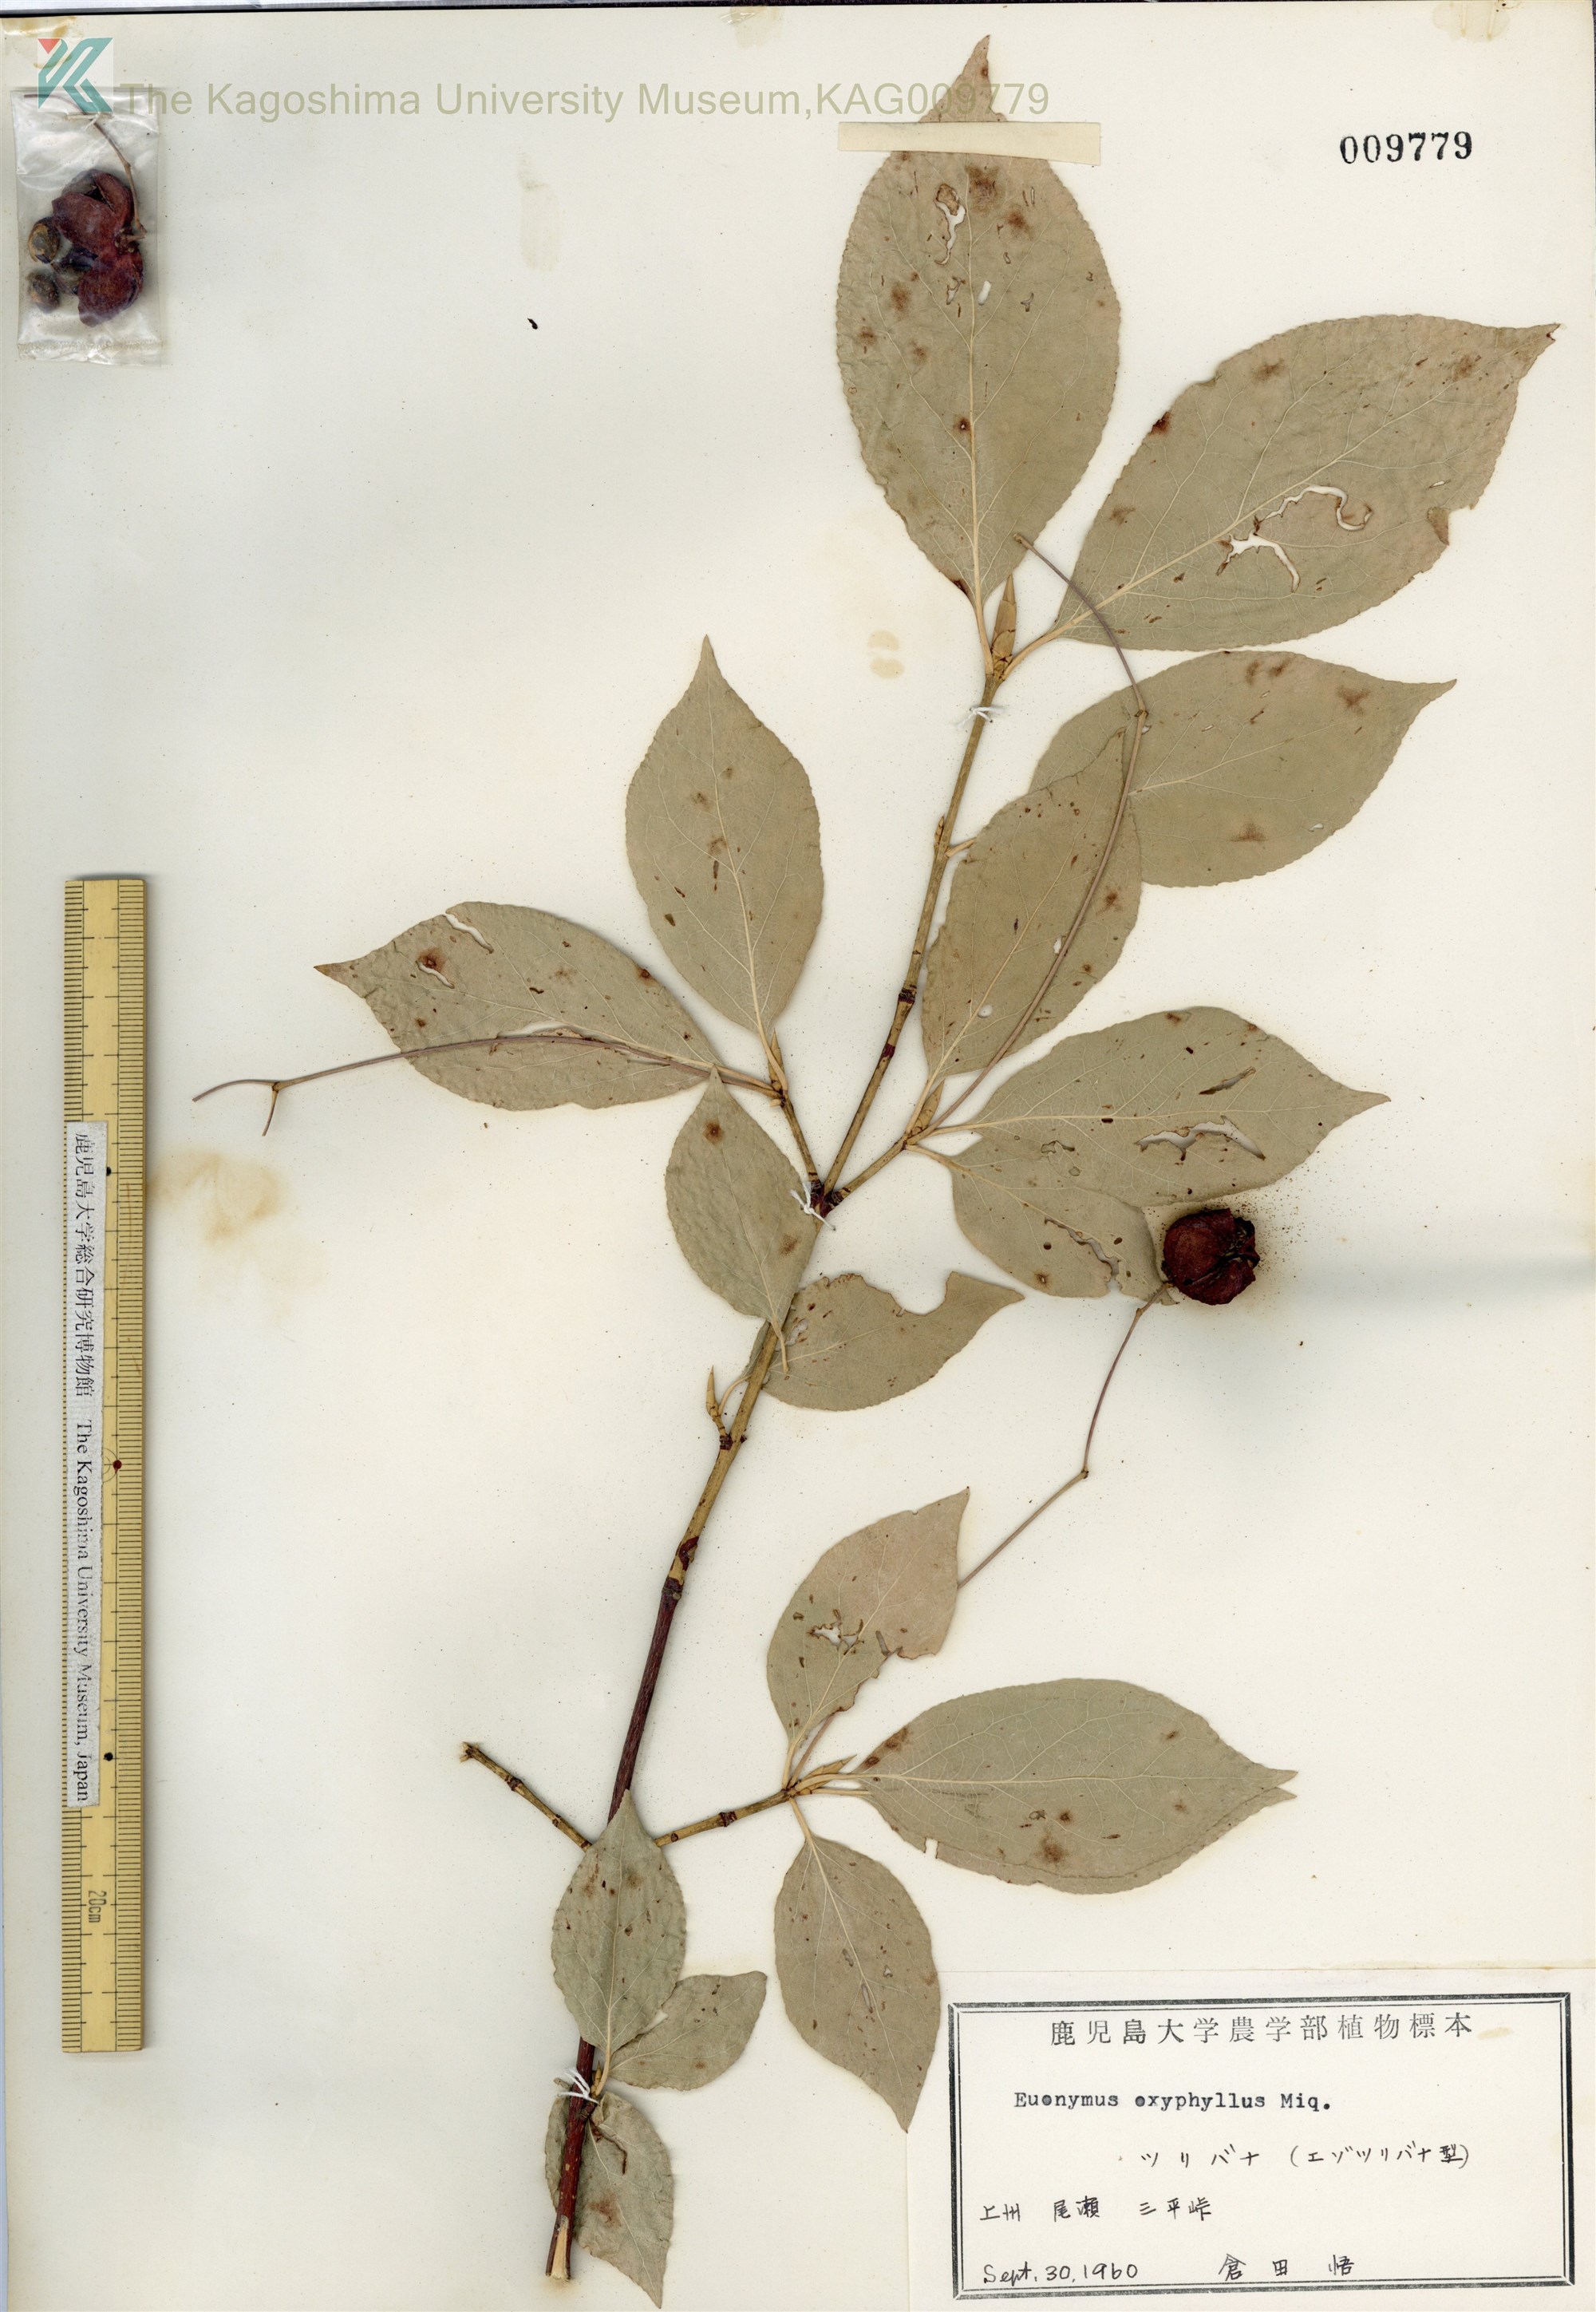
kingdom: Plantae
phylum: Tracheophyta
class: Magnoliopsida
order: Celastrales
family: Celastraceae
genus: Euonymus
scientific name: Euonymus oxyphyllus
